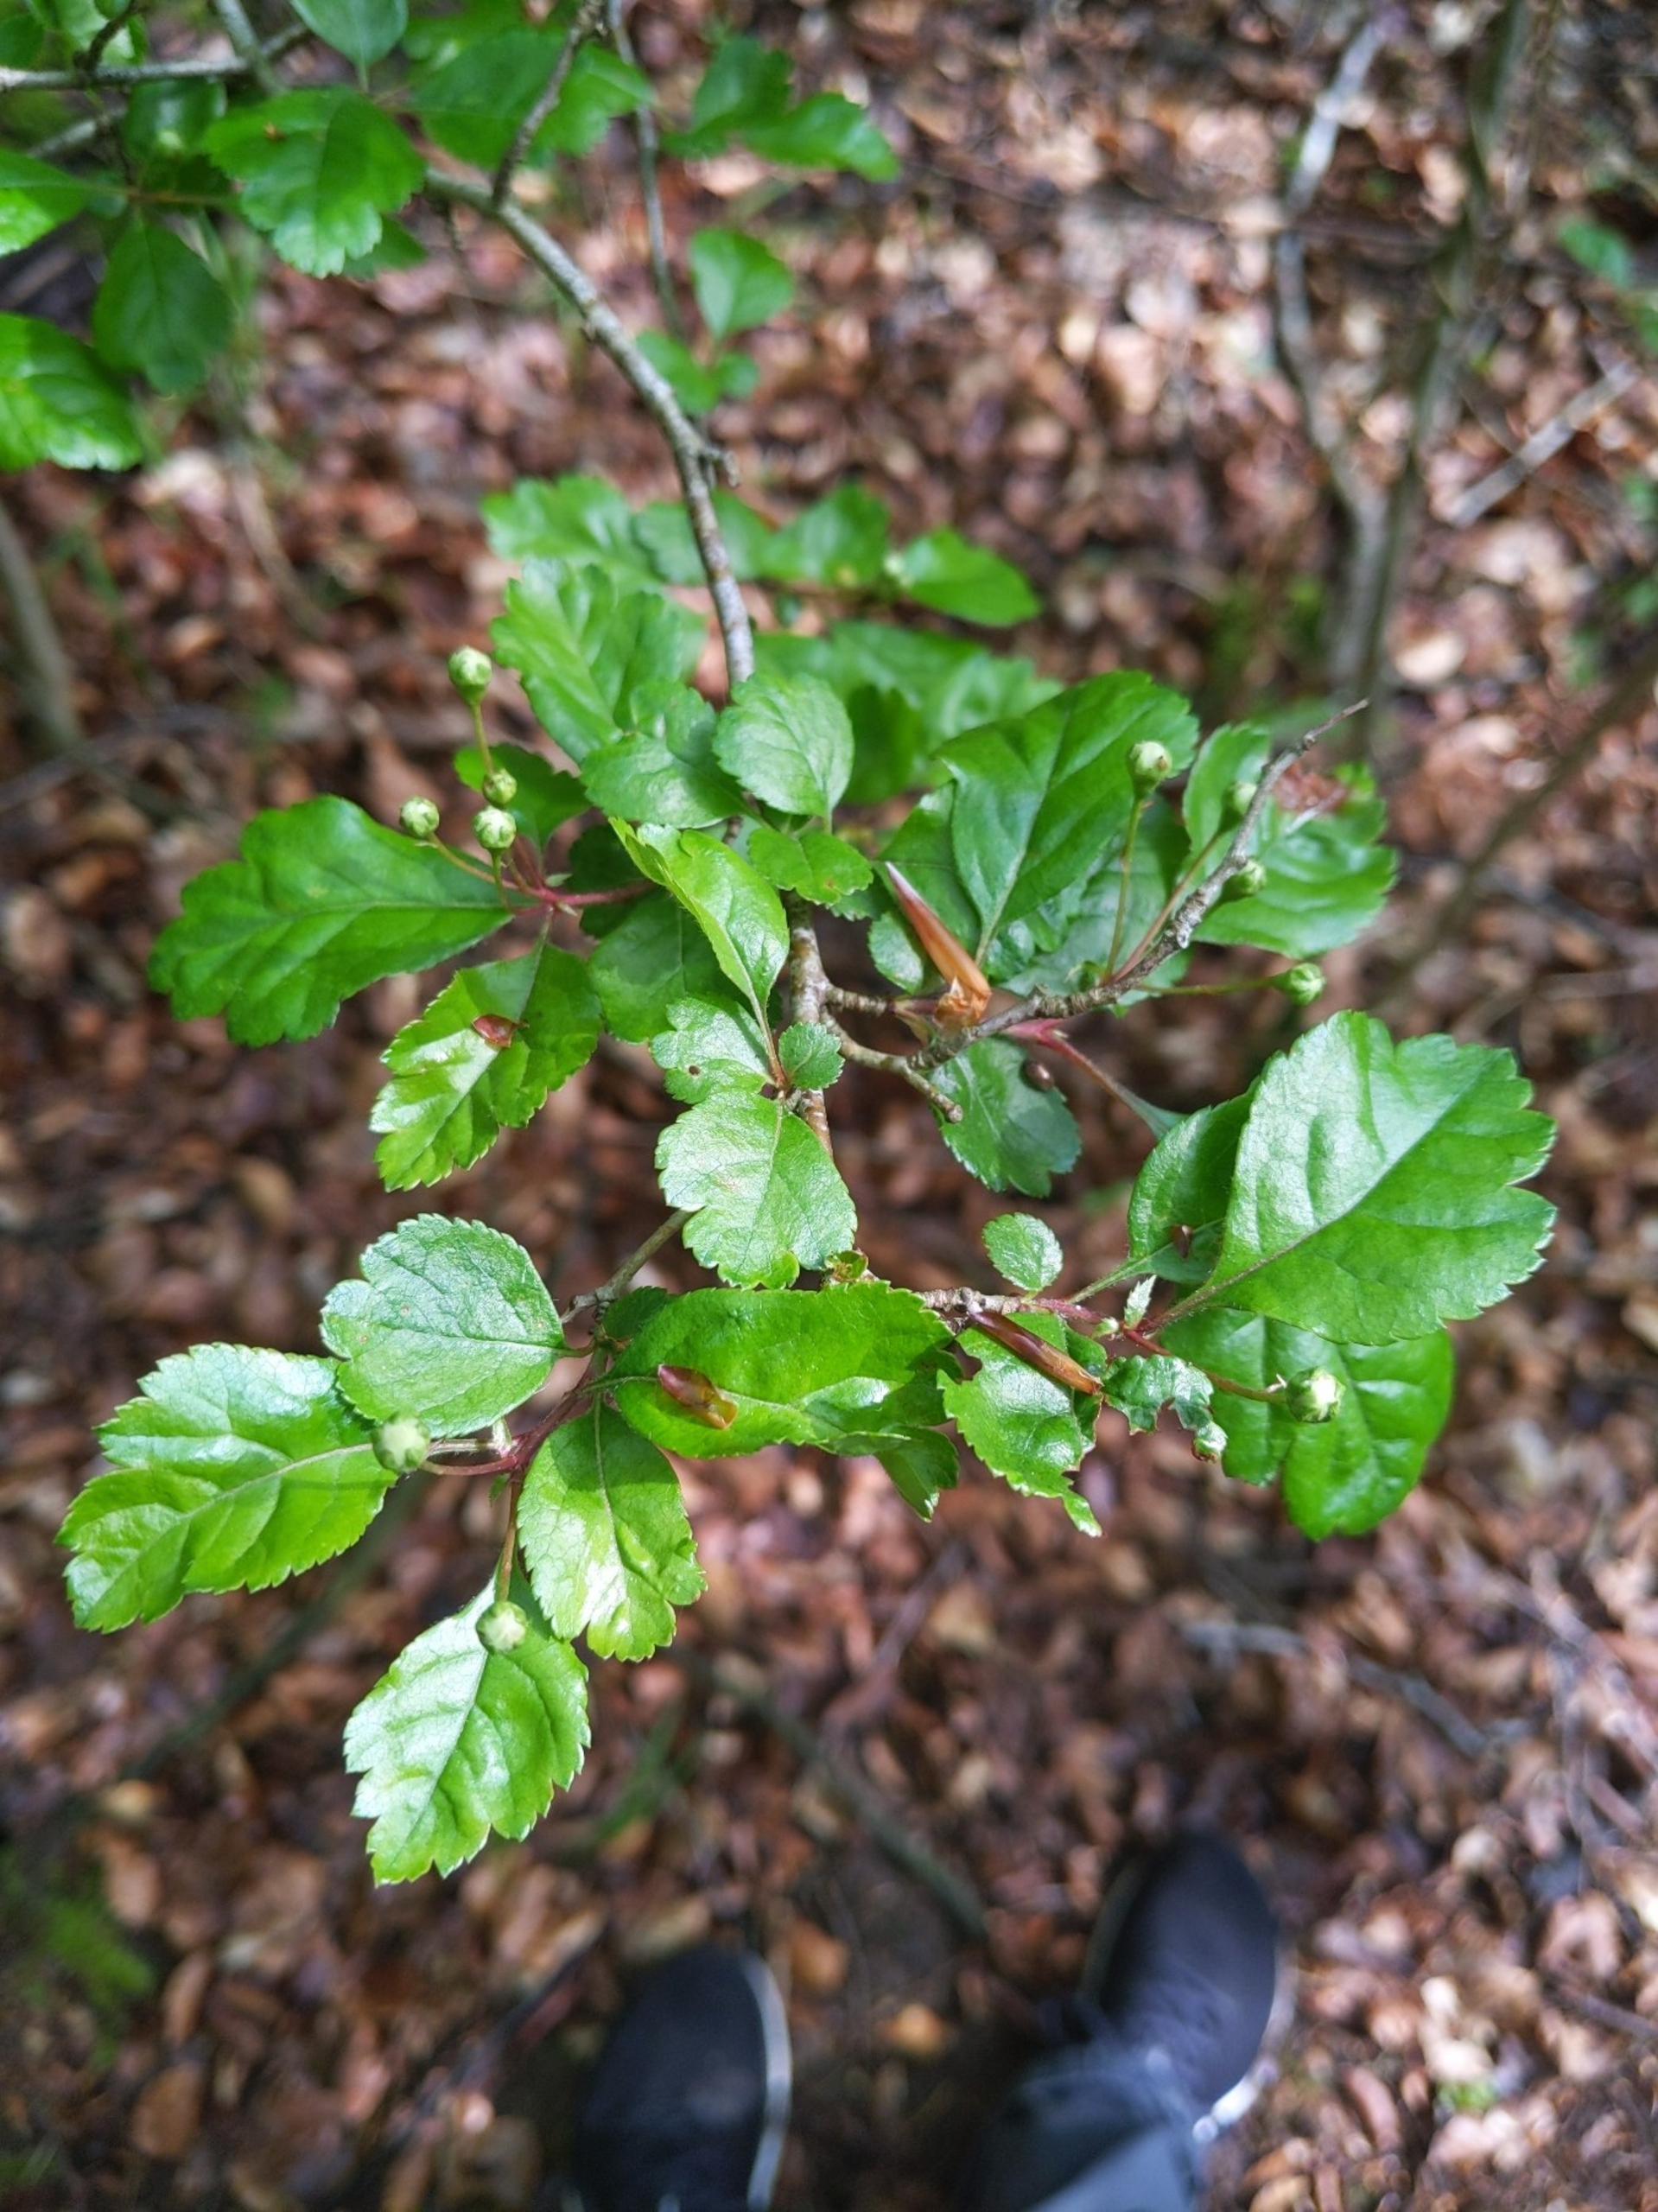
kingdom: Plantae
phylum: Tracheophyta
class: Magnoliopsida
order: Rosales
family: Rosaceae
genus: Crataegus
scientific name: Crataegus laevigata
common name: Almindelig hvidtjørn
